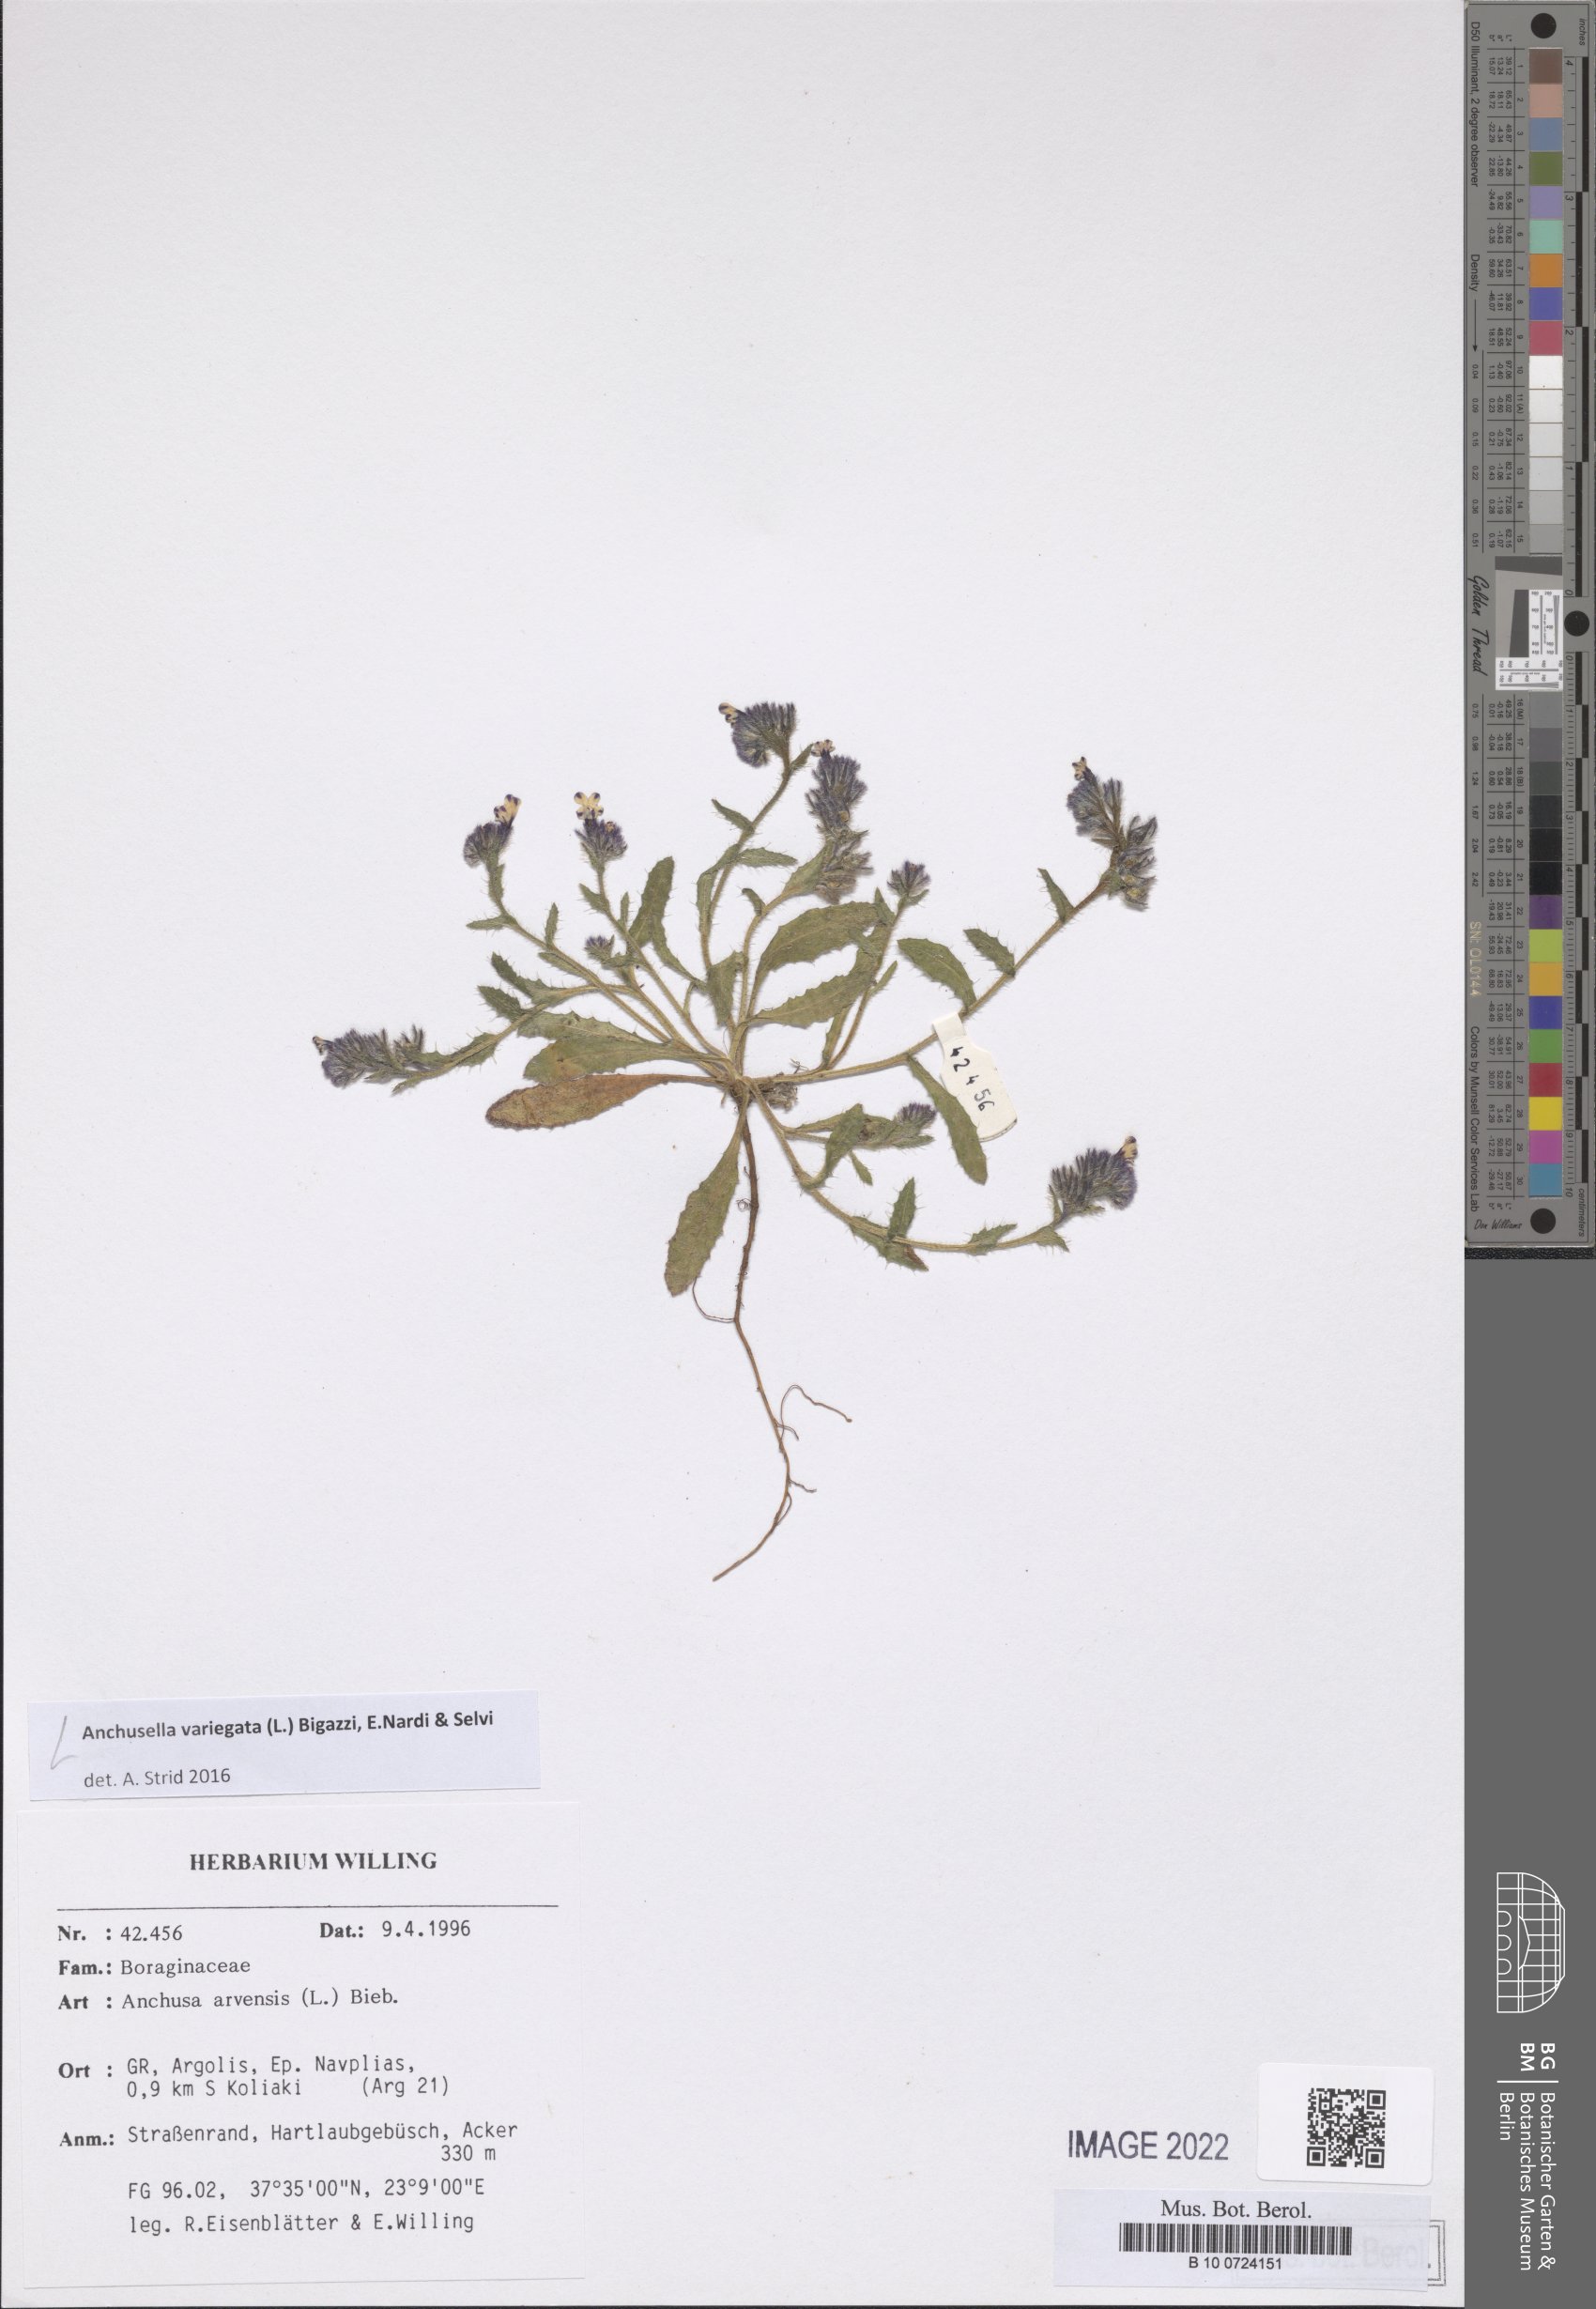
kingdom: Plantae
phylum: Tracheophyta
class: Magnoliopsida
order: Boraginales
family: Boraginaceae
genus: Anchusella
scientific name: Anchusella variegata
